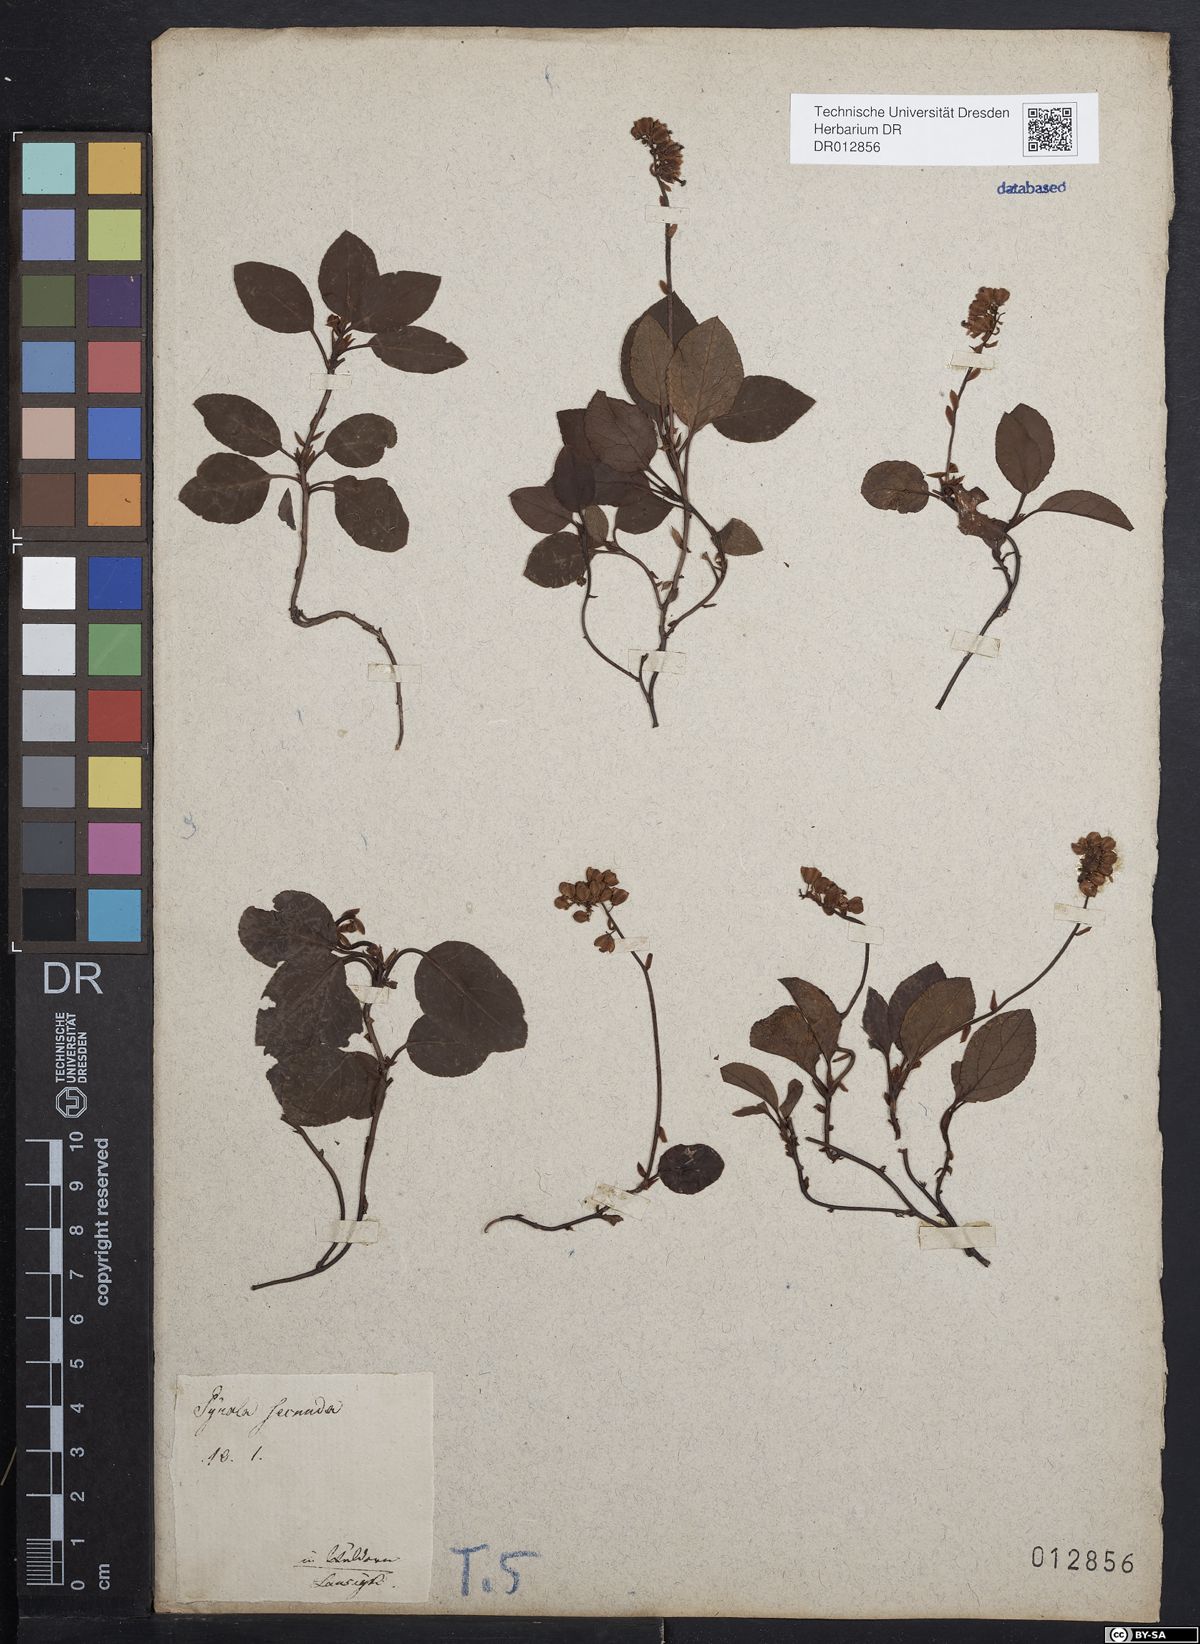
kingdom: Plantae
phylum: Tracheophyta
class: Magnoliopsida
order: Ericales
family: Ericaceae
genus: Orthilia
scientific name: Orthilia secunda
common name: One-sided orthilia
